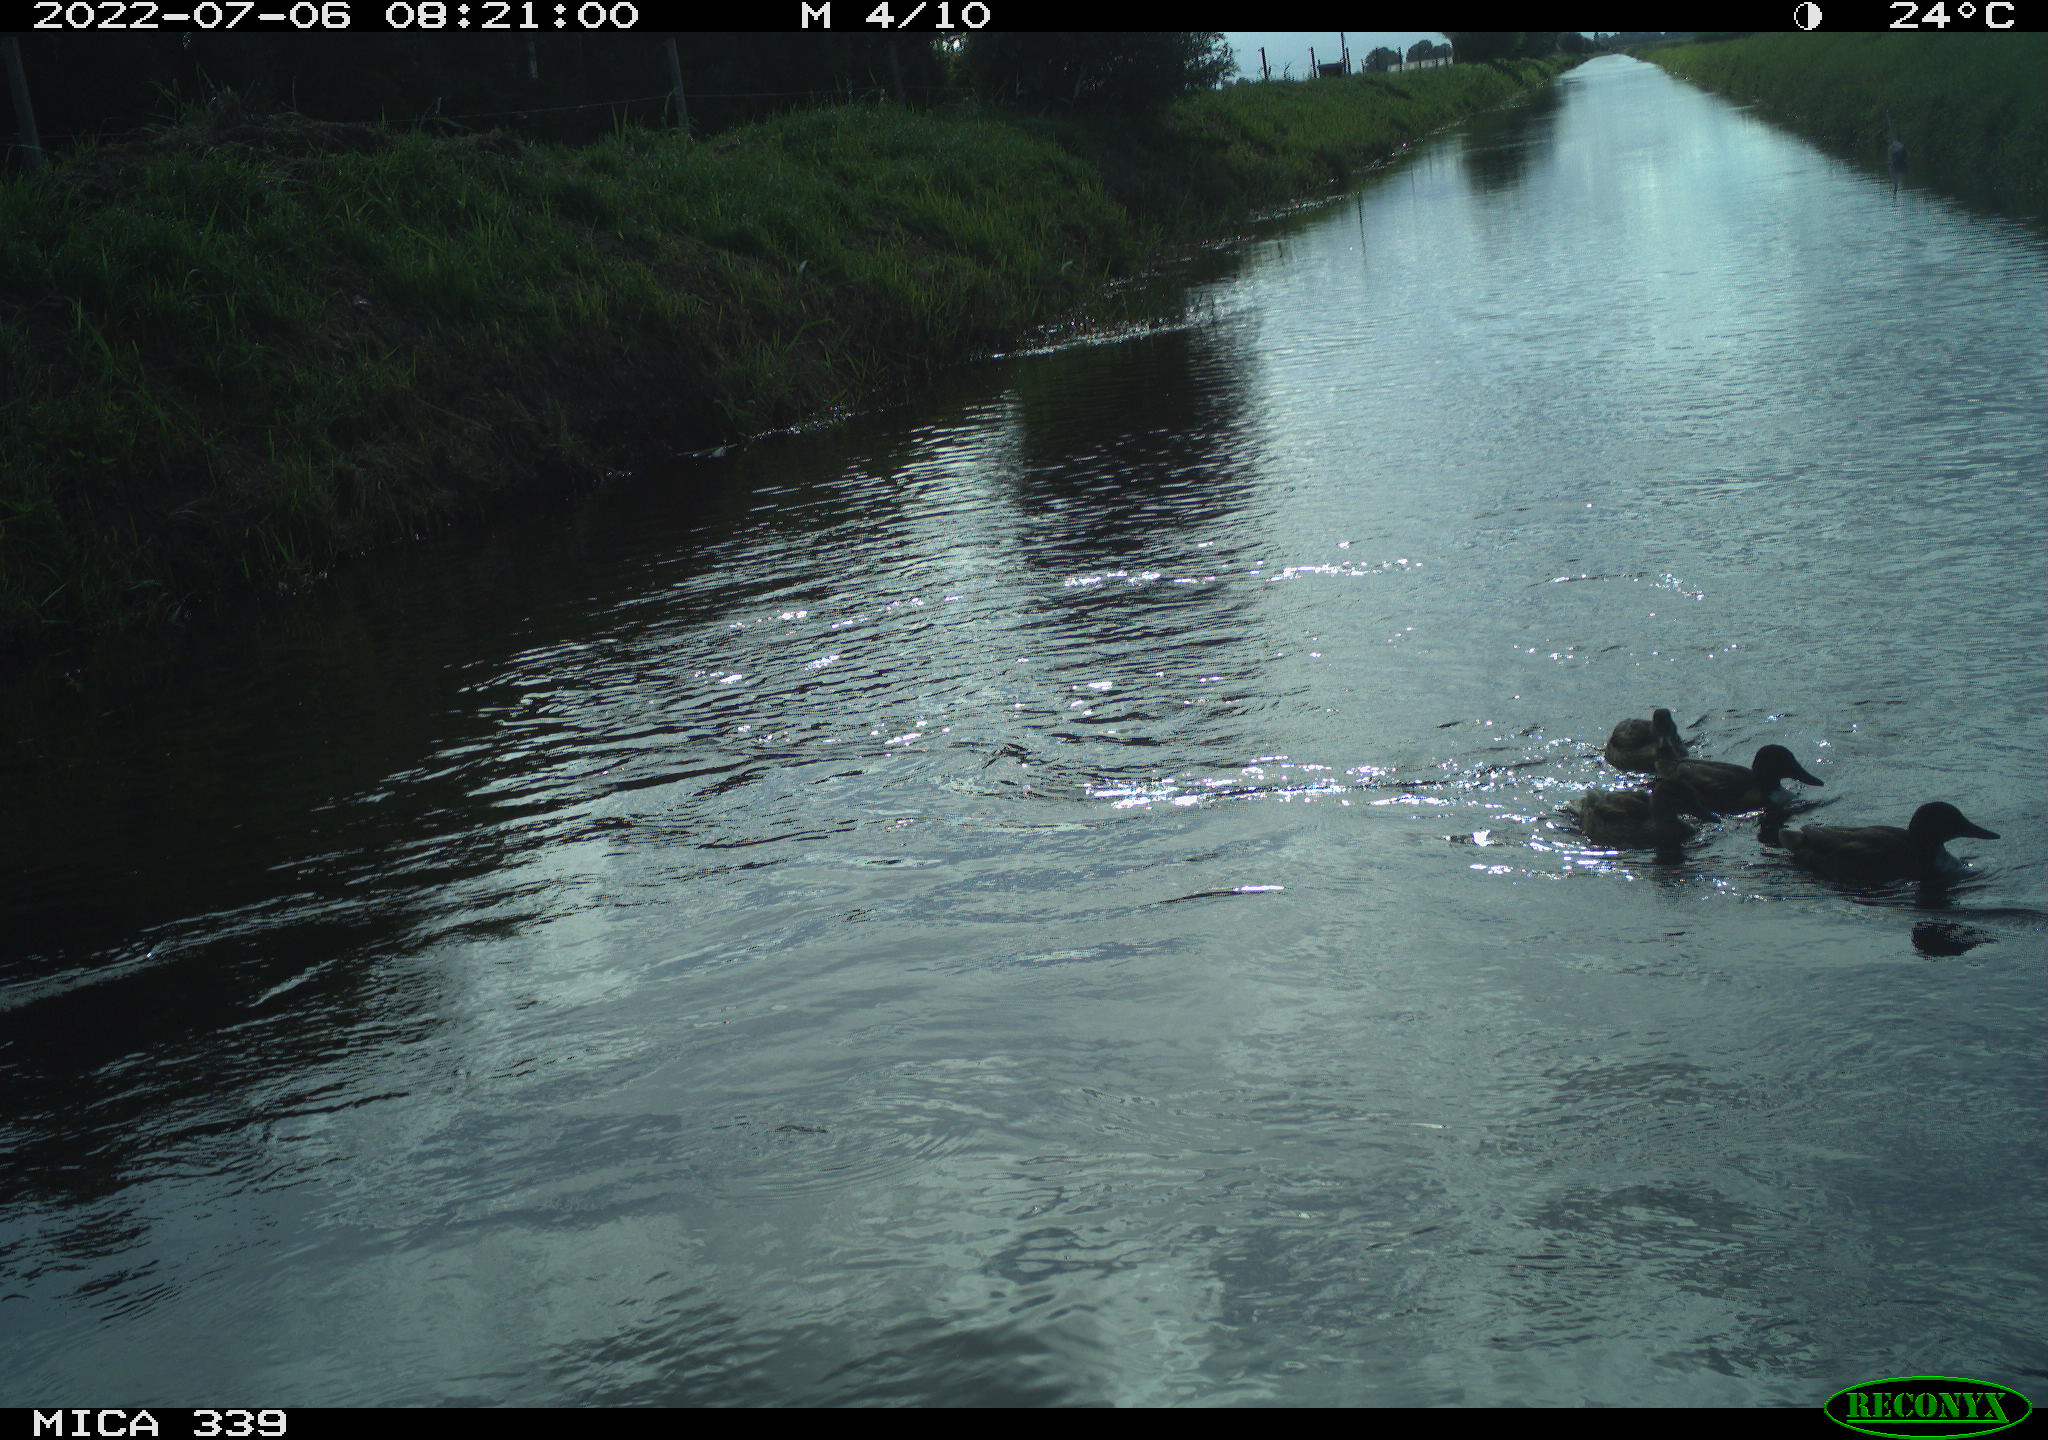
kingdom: Animalia
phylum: Chordata
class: Aves
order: Anseriformes
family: Anatidae
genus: Anas
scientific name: Anas platyrhynchos
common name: Mallard
